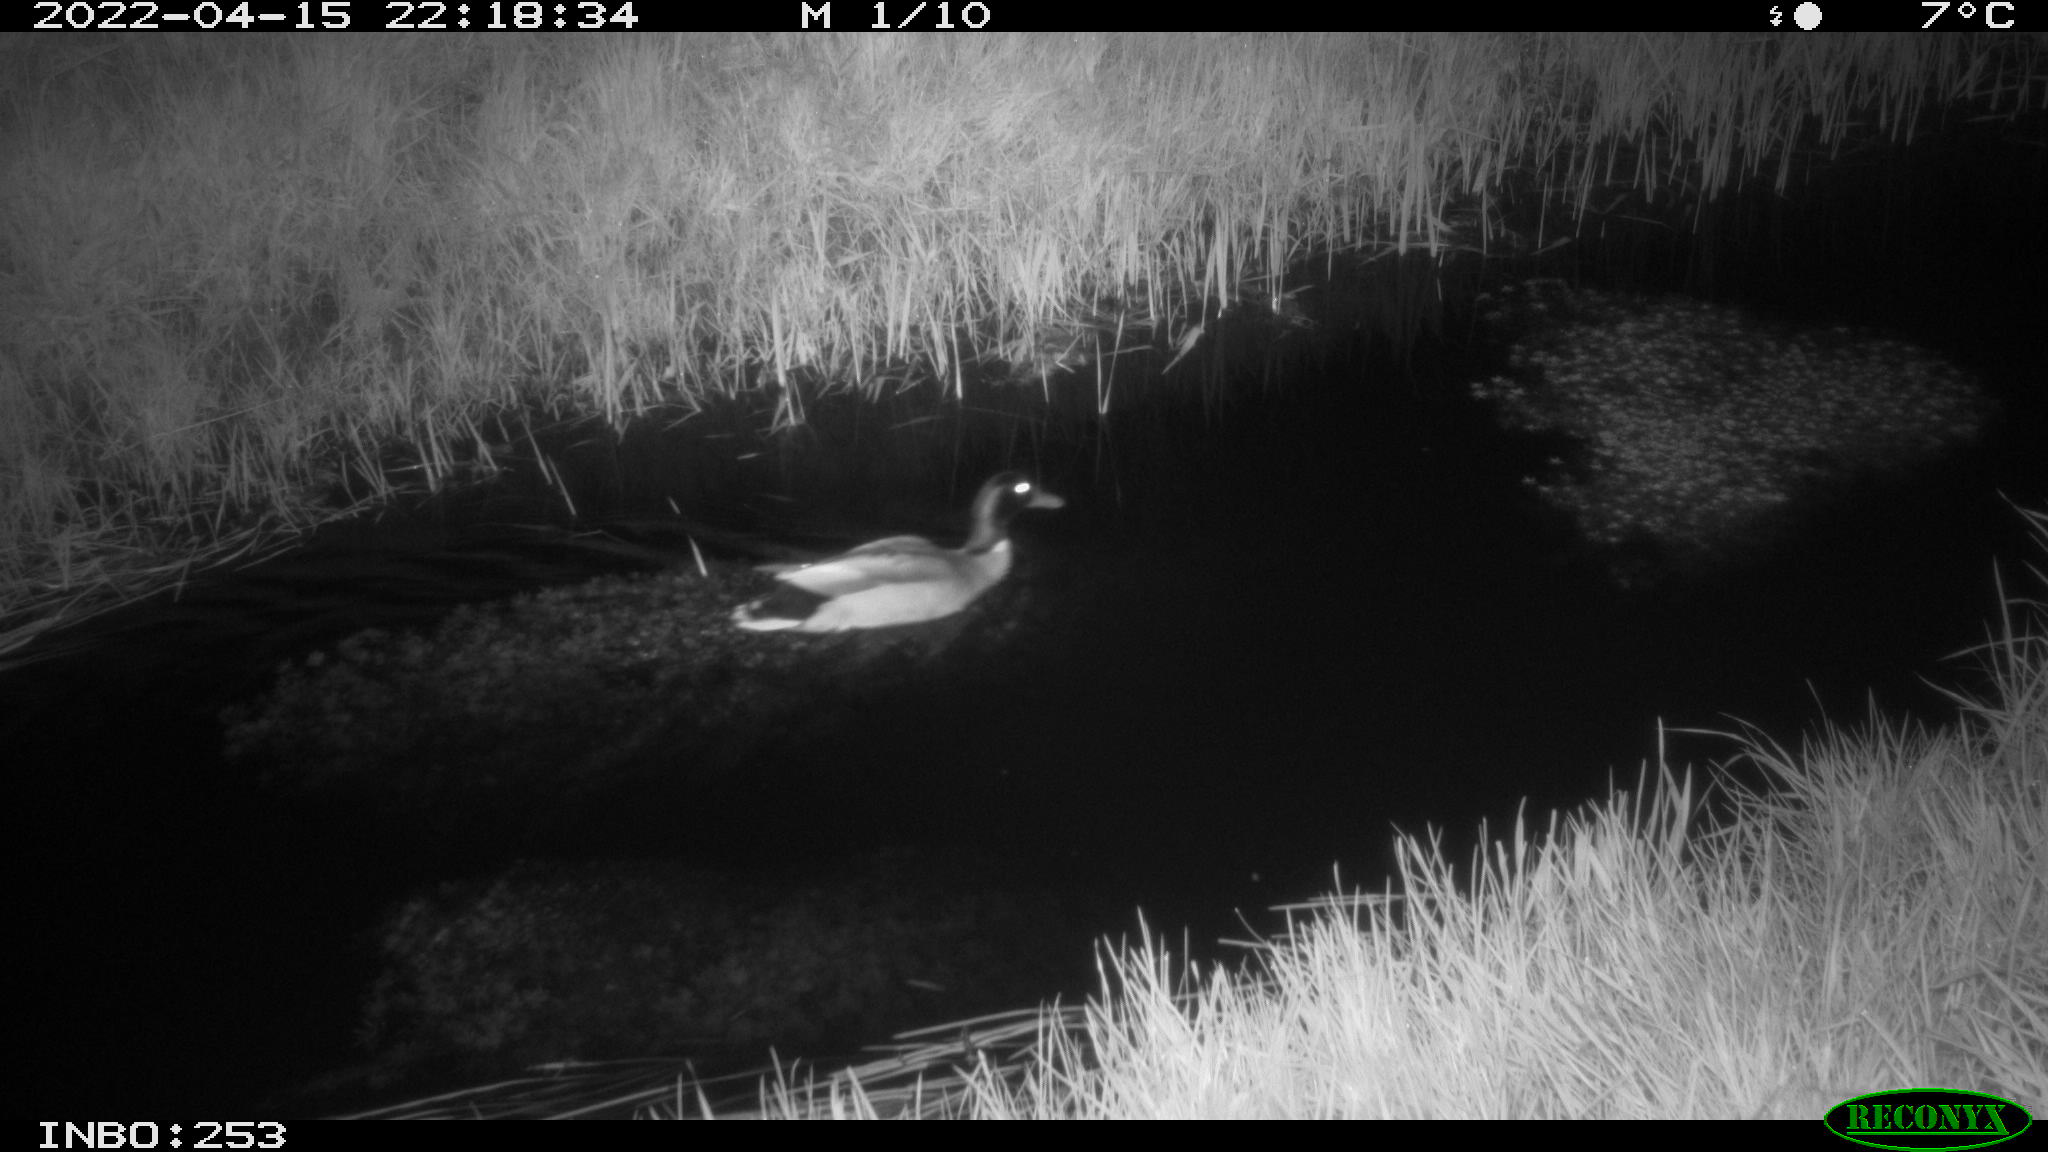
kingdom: Animalia
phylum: Chordata
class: Aves
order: Anseriformes
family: Anatidae
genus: Anas
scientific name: Anas platyrhynchos
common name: Mallard
